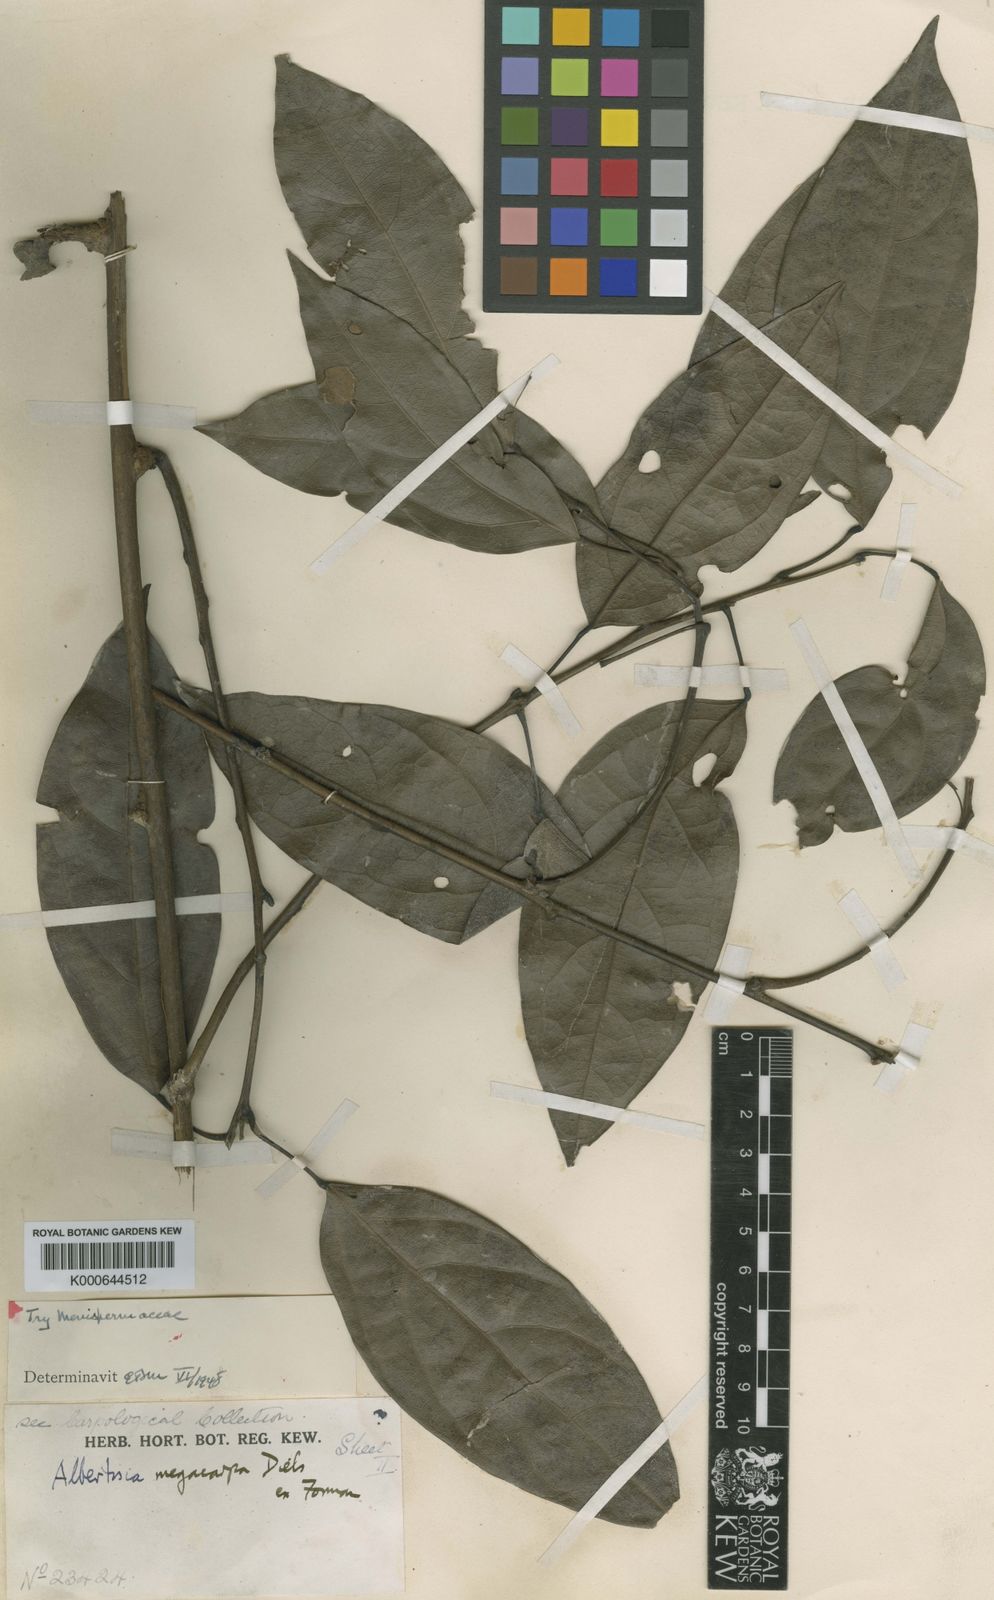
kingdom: Plantae
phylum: Tracheophyta
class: Magnoliopsida
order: Ranunculales
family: Menispermaceae
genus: Albertisia
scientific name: Albertisia megacarpa
